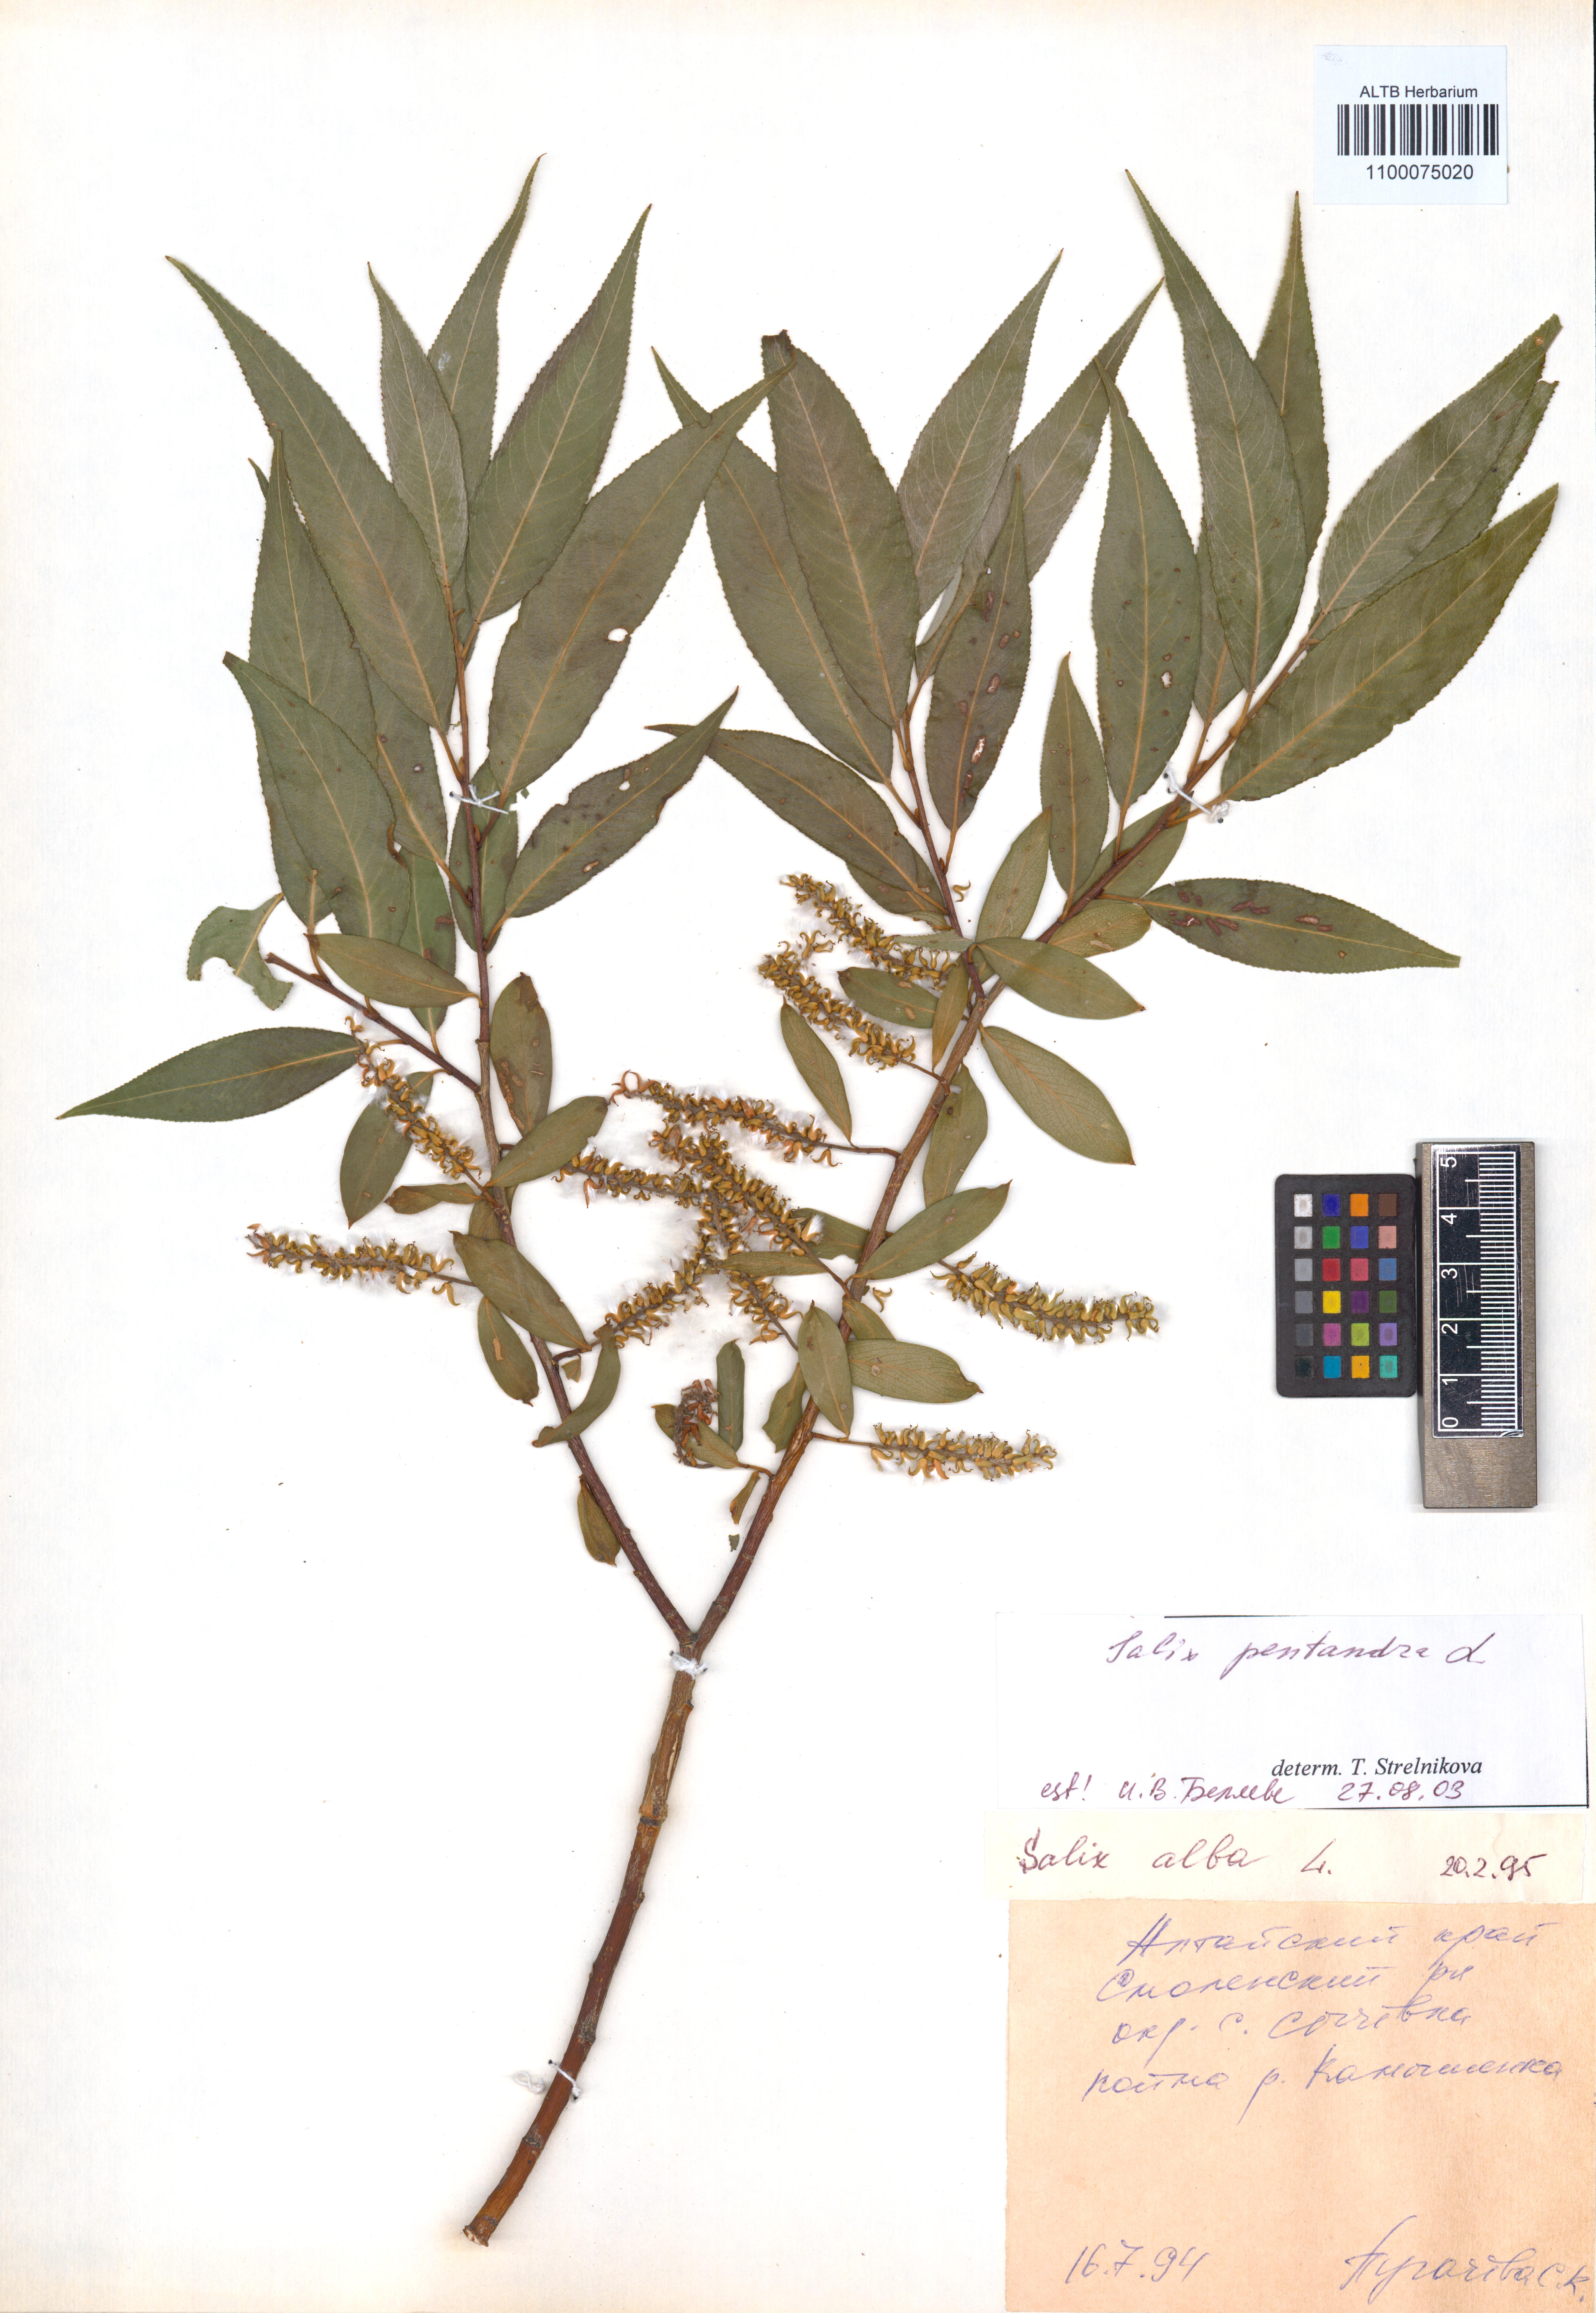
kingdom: Plantae
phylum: Tracheophyta
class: Magnoliopsida
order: Malpighiales
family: Salicaceae
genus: Salix
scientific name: Salix pentandra
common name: Bay willow
